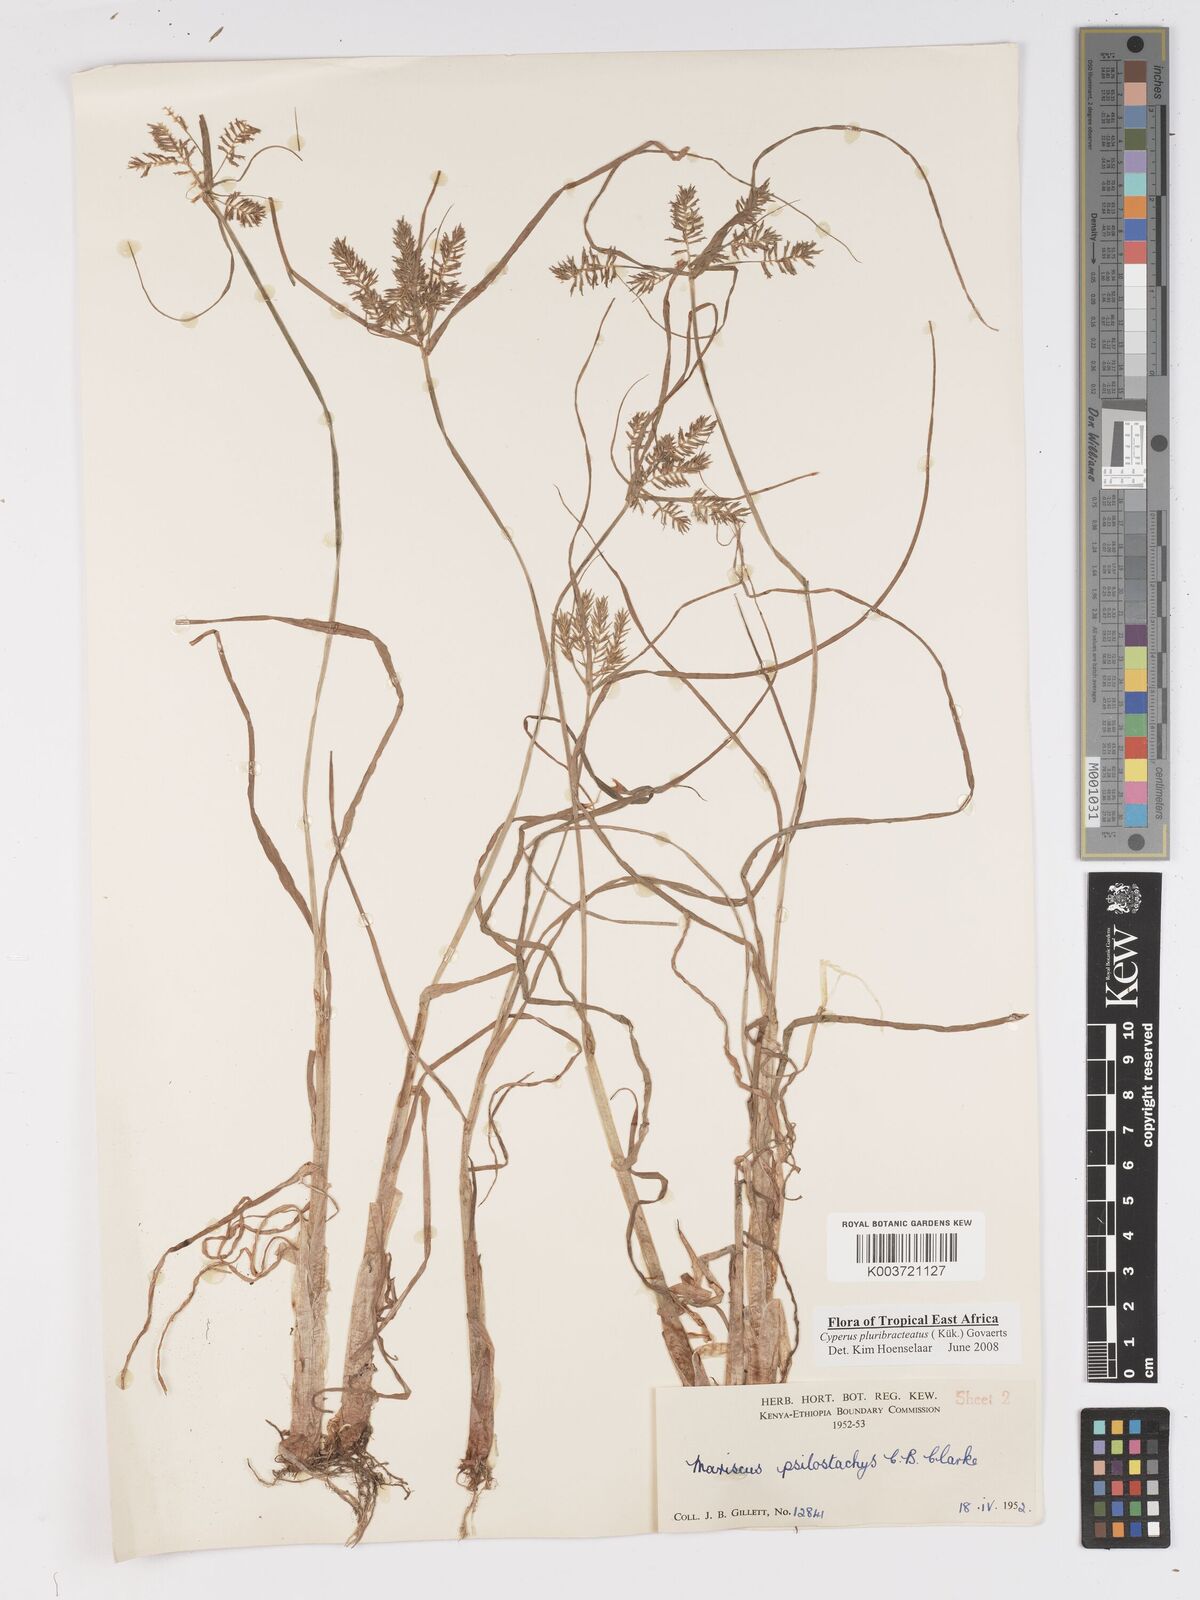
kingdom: Plantae
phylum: Tracheophyta
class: Liliopsida
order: Poales
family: Cyperaceae
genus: Cyperus
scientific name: Cyperus trigonellus
